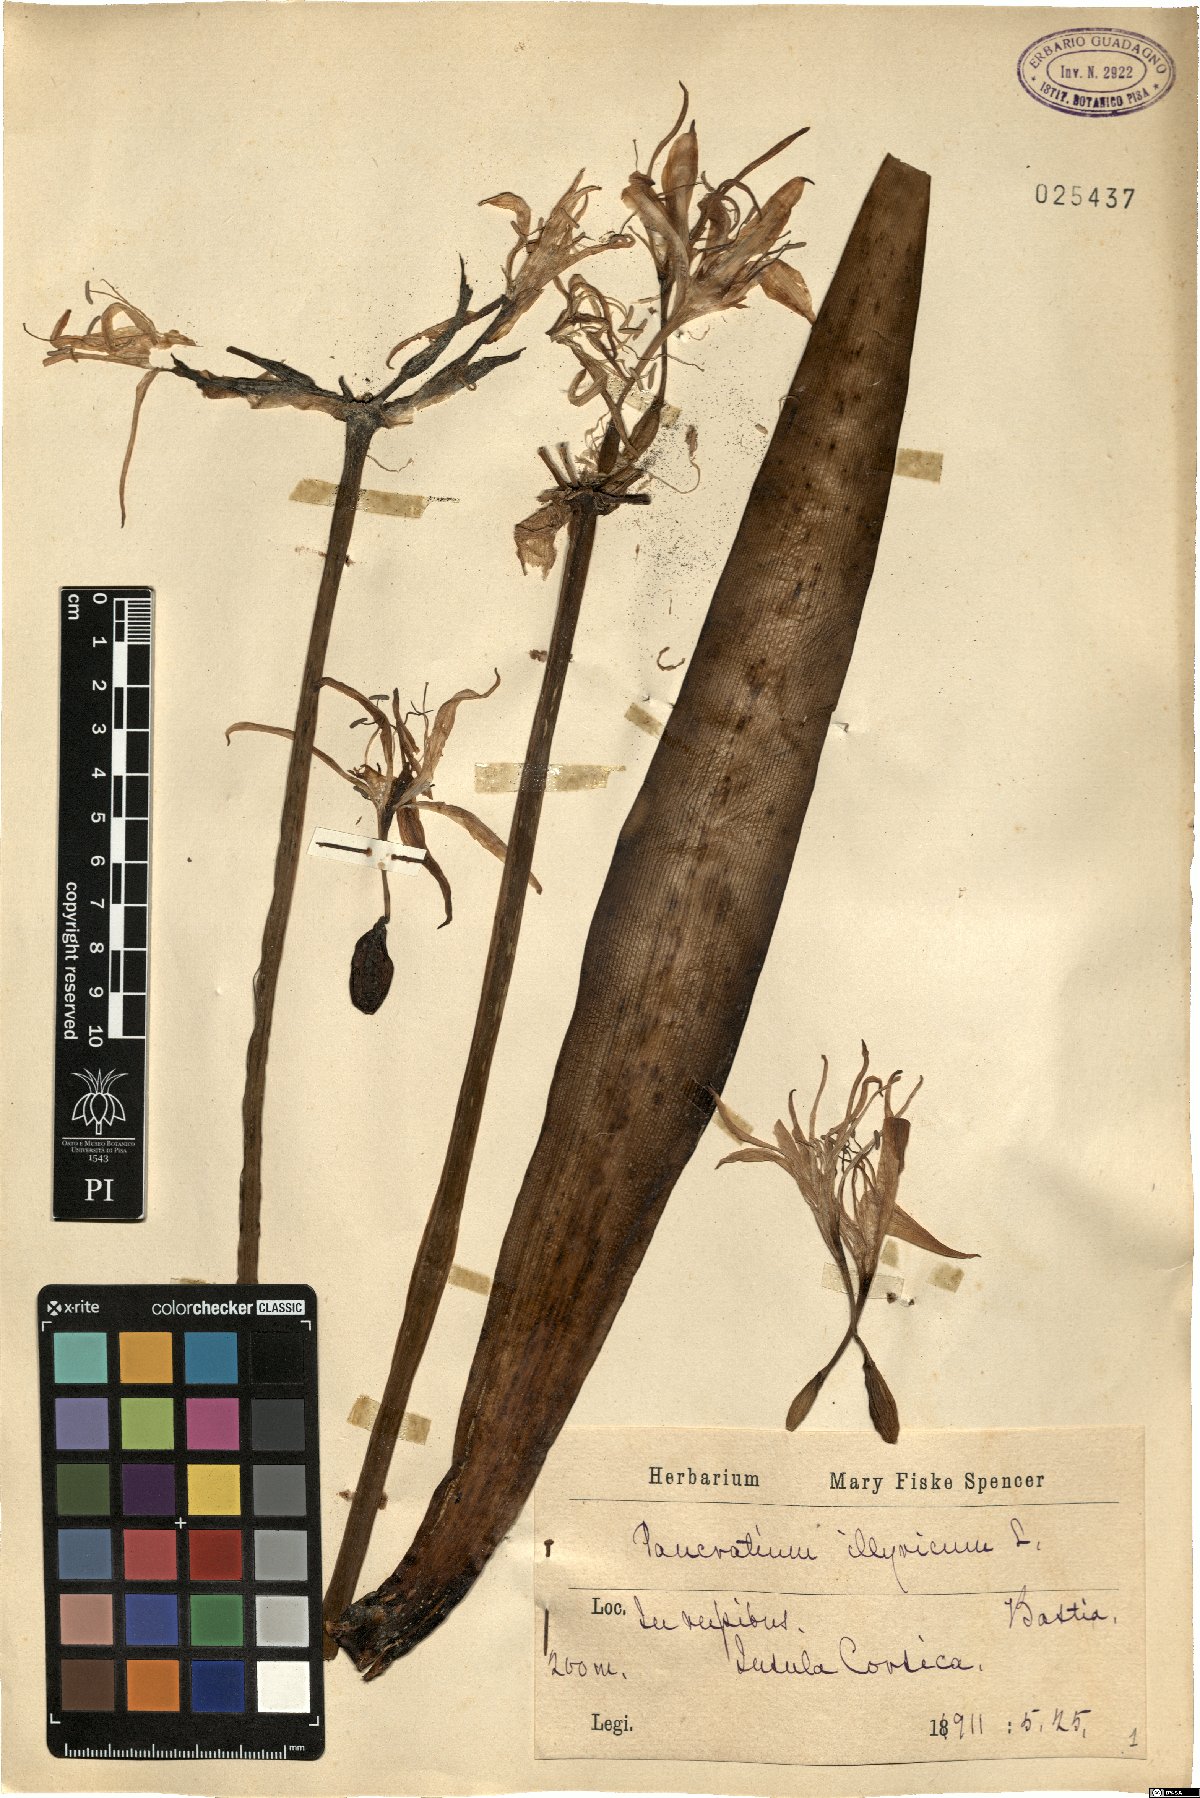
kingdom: Plantae
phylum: Tracheophyta
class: Liliopsida
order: Asparagales
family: Amaryllidaceae
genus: Pancratium
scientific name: Pancratium illyricum
